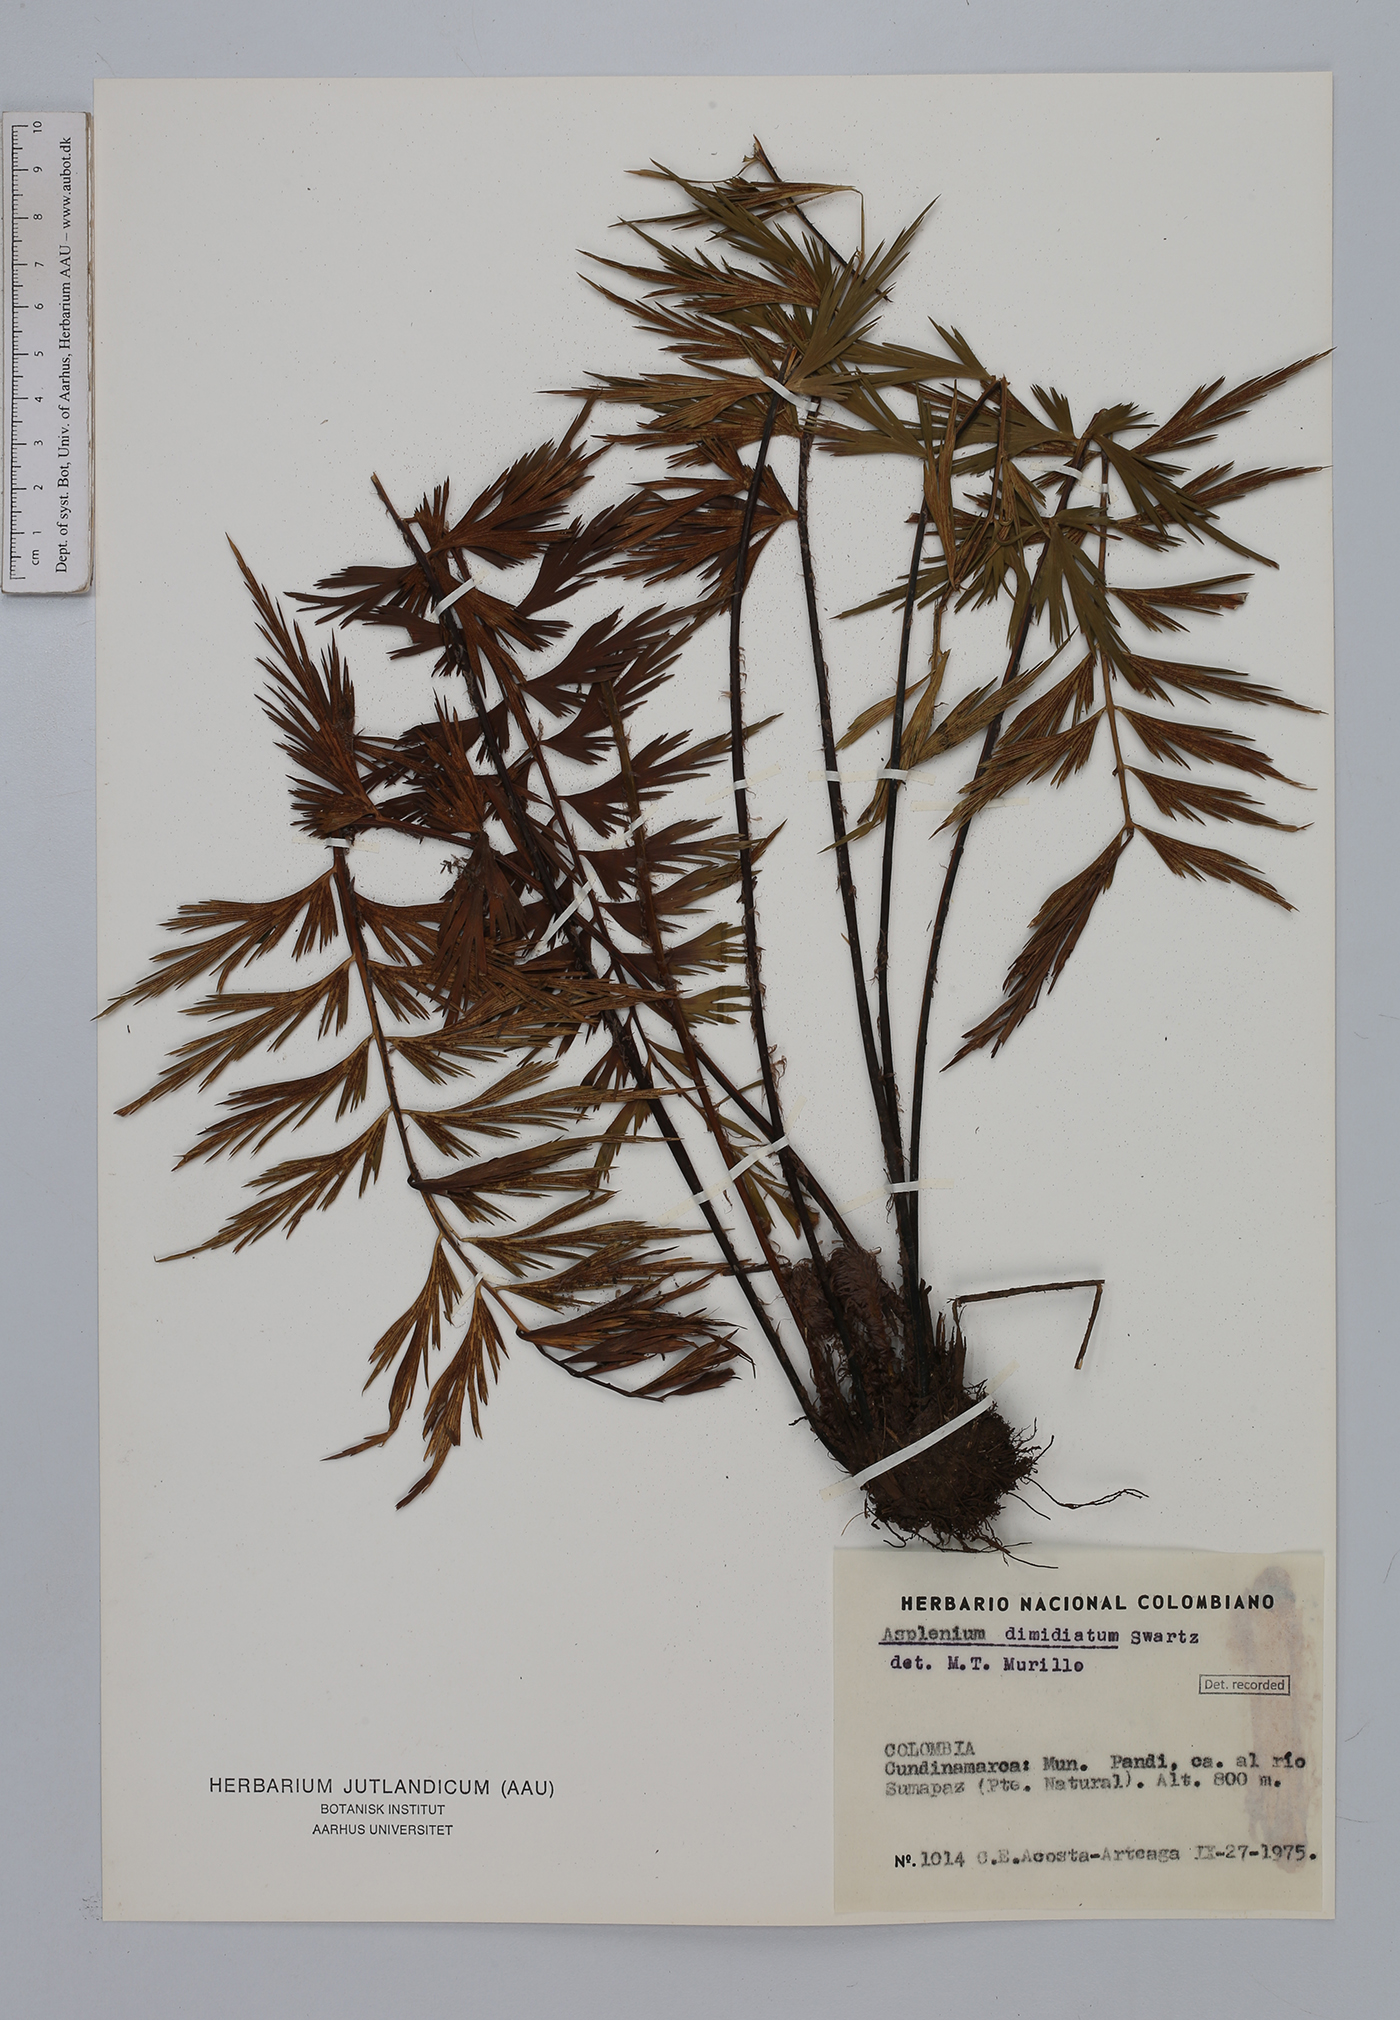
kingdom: Plantae
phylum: Tracheophyta
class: Polypodiopsida
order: Polypodiales
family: Aspleniaceae
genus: Asplenium
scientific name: Asplenium dimidiatum
